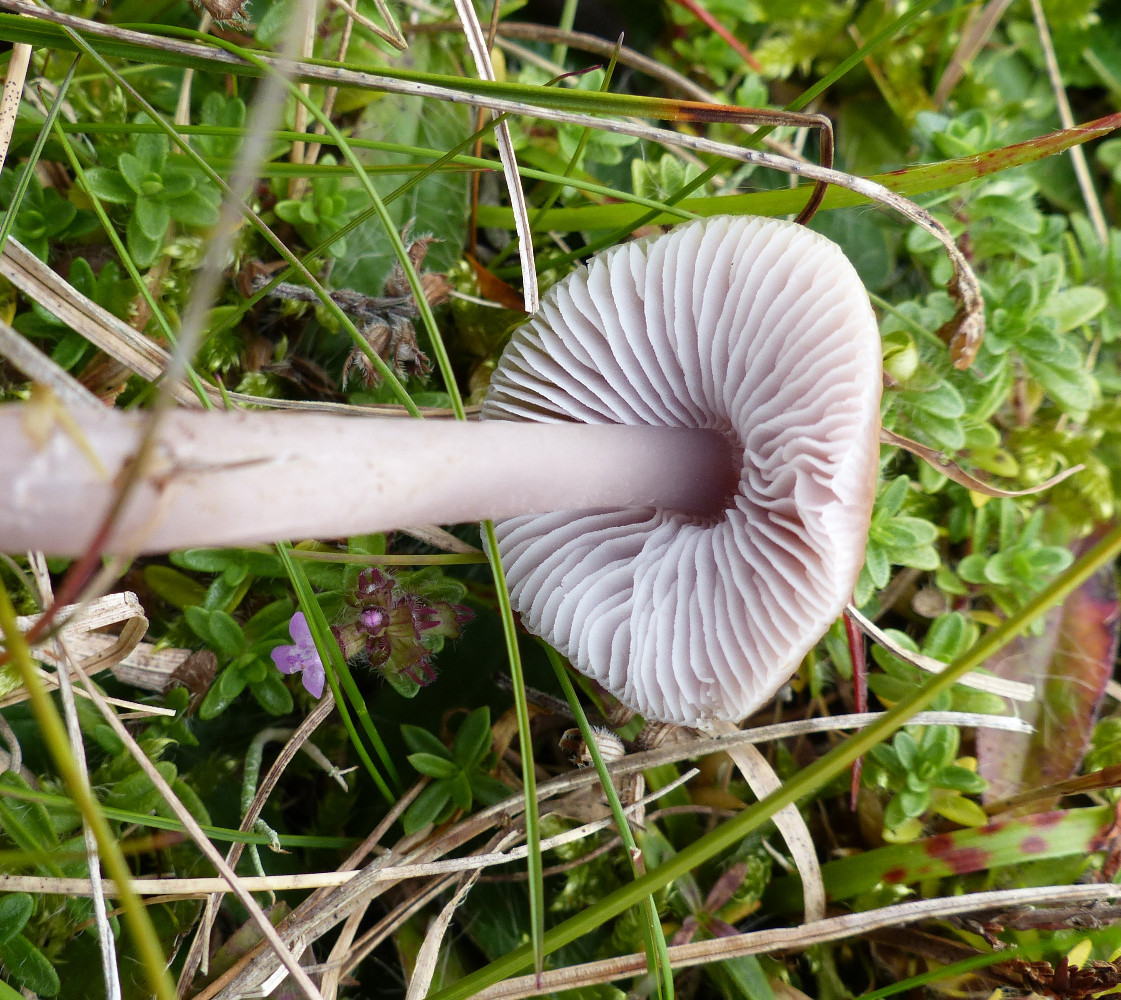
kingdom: Fungi
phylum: Basidiomycota
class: Agaricomycetes
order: Agaricales
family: Mycenaceae
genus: Mycena
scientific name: Mycena luteovariegata
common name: lillagul huesvamp
